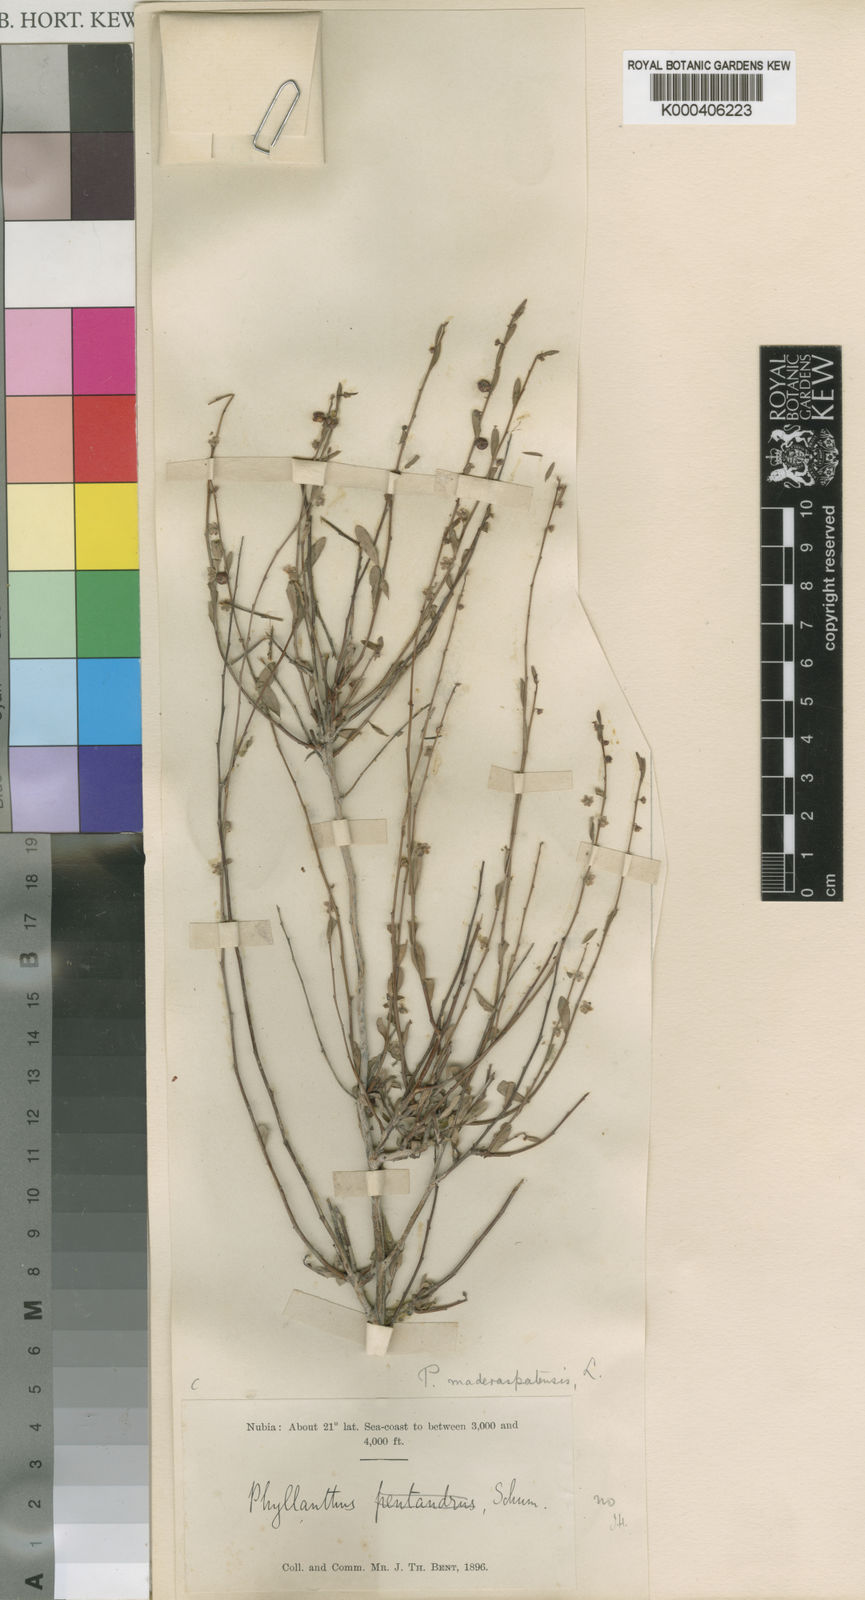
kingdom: Plantae
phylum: Tracheophyta
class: Magnoliopsida
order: Malpighiales
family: Phyllanthaceae
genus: Phyllanthus
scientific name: Phyllanthus maderaspatensis
